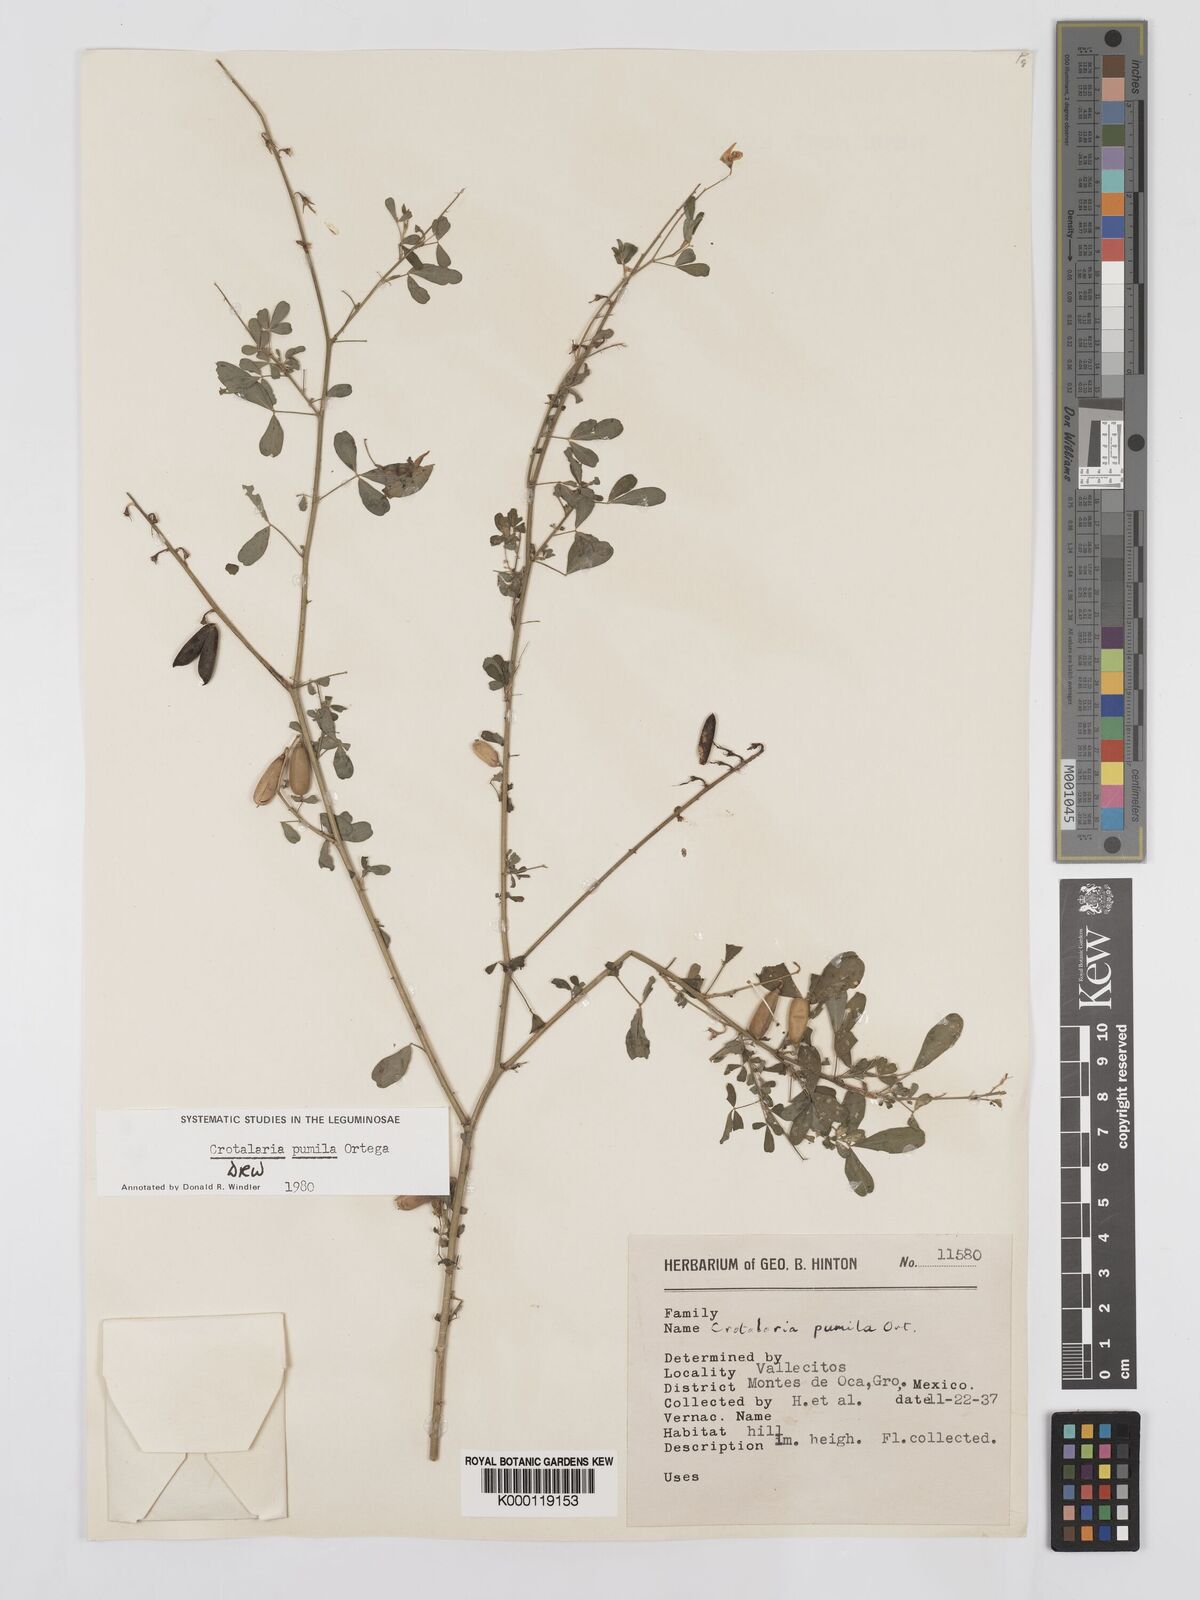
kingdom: Plantae
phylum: Tracheophyta
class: Magnoliopsida
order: Fabales
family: Fabaceae
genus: Crotalaria
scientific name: Crotalaria pumila
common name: Low rattlebox
